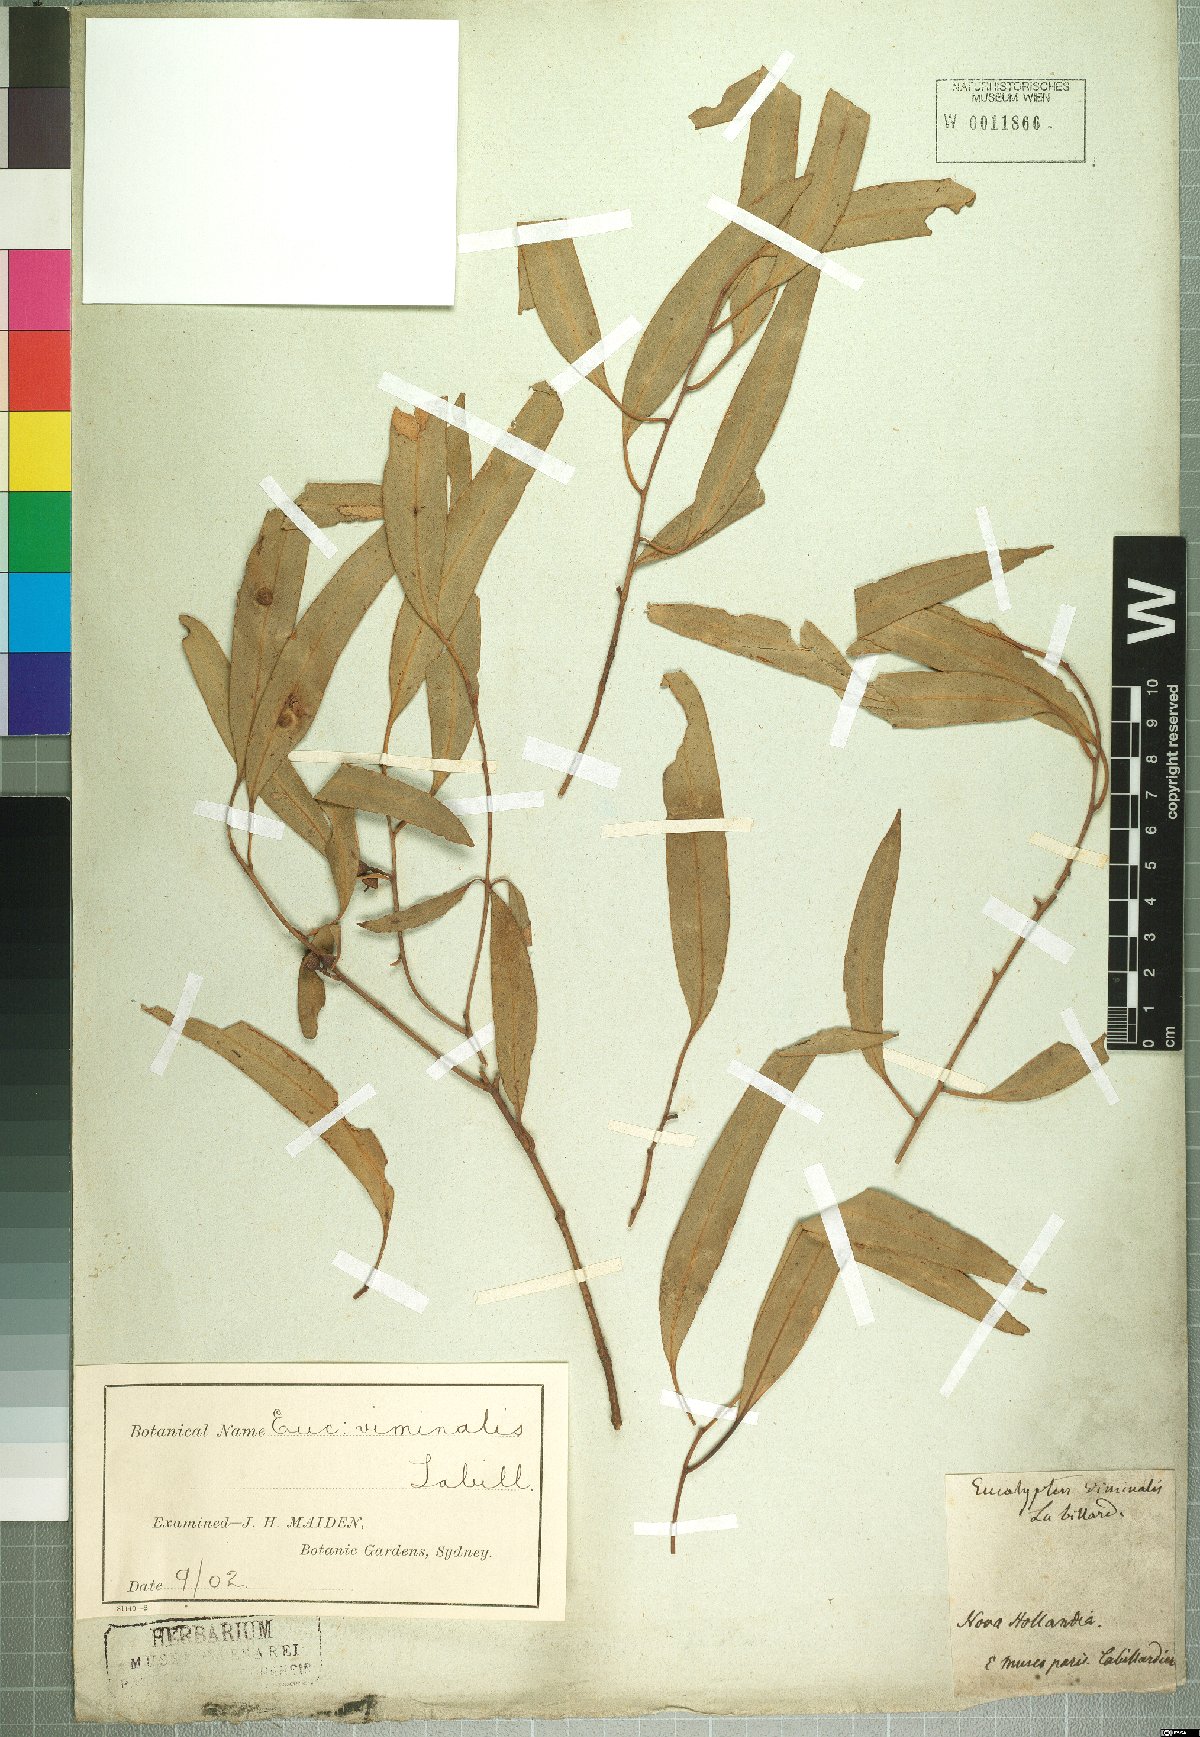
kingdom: Plantae
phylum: Tracheophyta
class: Magnoliopsida
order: Myrtales
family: Myrtaceae
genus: Eucalyptus
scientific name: Eucalyptus viminalis
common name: Manna gum
